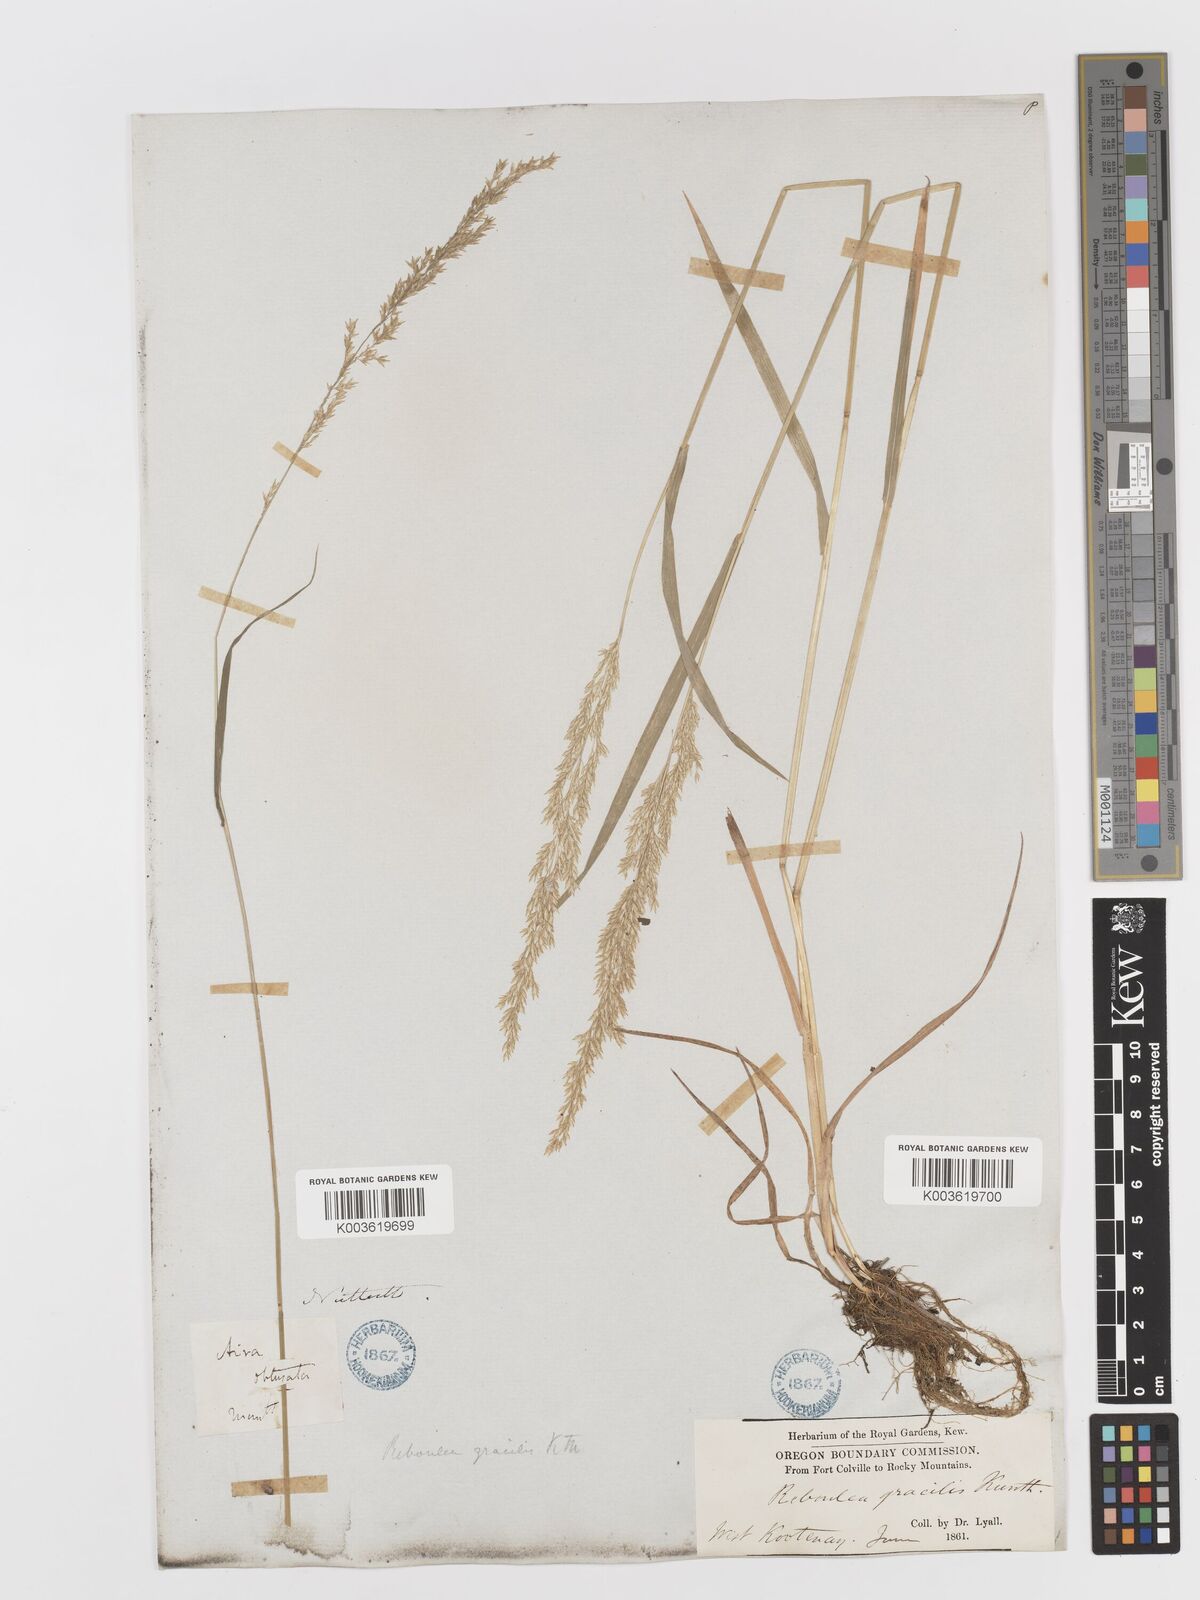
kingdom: Plantae
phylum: Tracheophyta
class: Liliopsida
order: Poales
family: Poaceae
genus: Sphenopholis
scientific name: Sphenopholis obtusata
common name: Prairie grass
